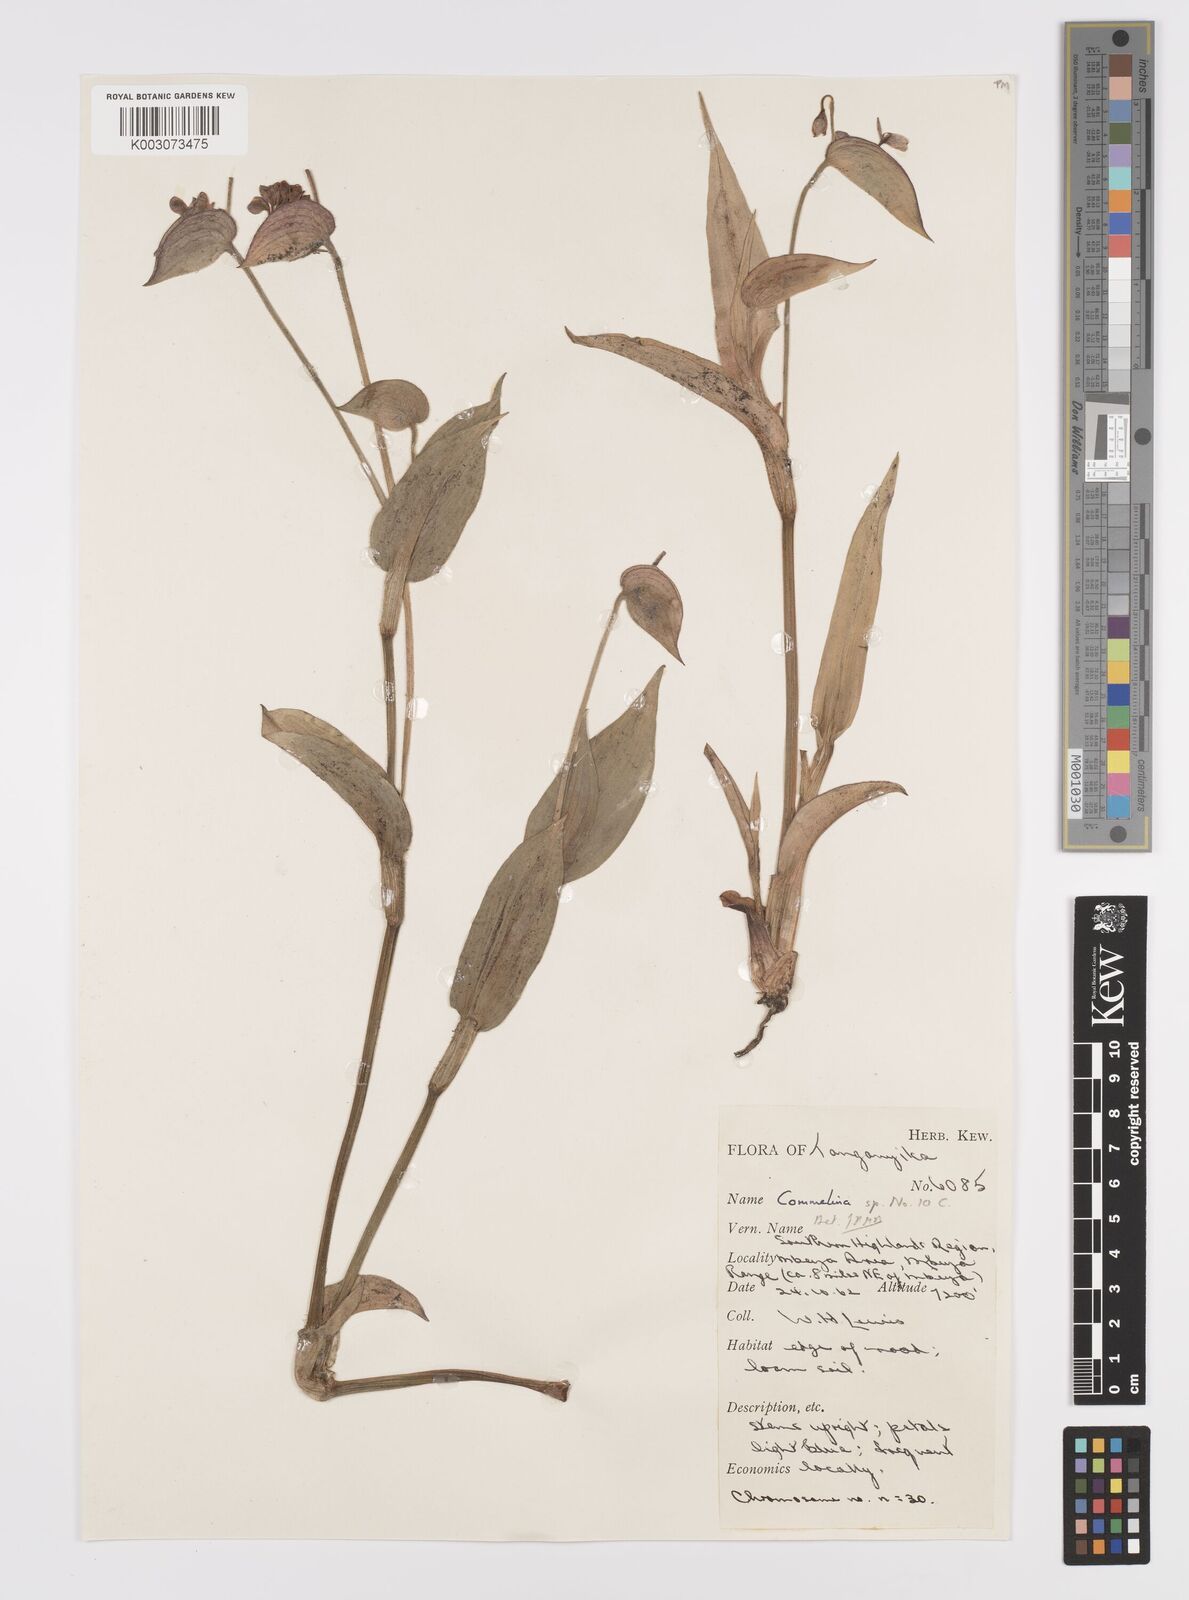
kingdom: Plantae
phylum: Tracheophyta
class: Liliopsida
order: Commelinales
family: Commelinaceae
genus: Commelina
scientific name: Commelina kituloensis
